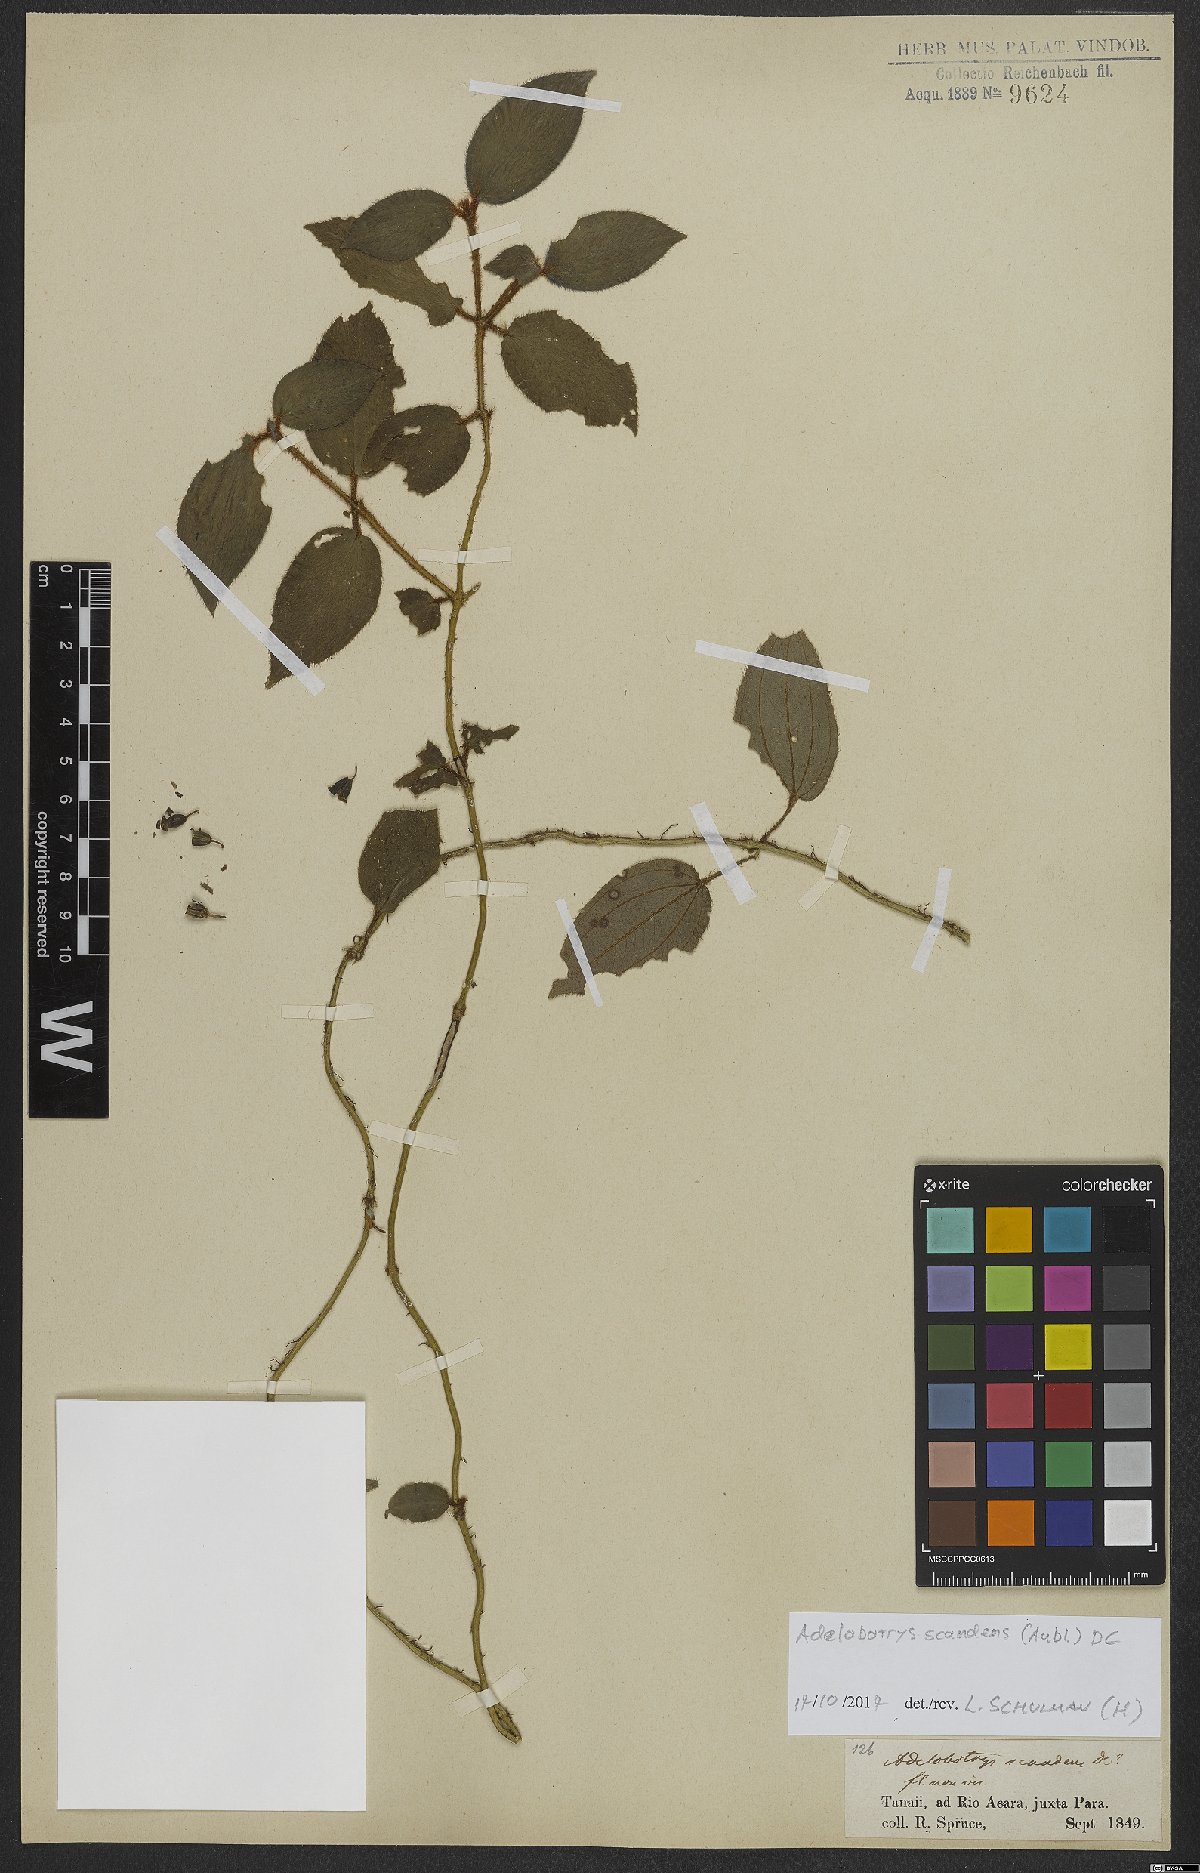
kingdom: Plantae
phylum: Tracheophyta
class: Magnoliopsida
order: Myrtales
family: Melastomataceae
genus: Adelobotrys
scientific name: Adelobotrys scandens
